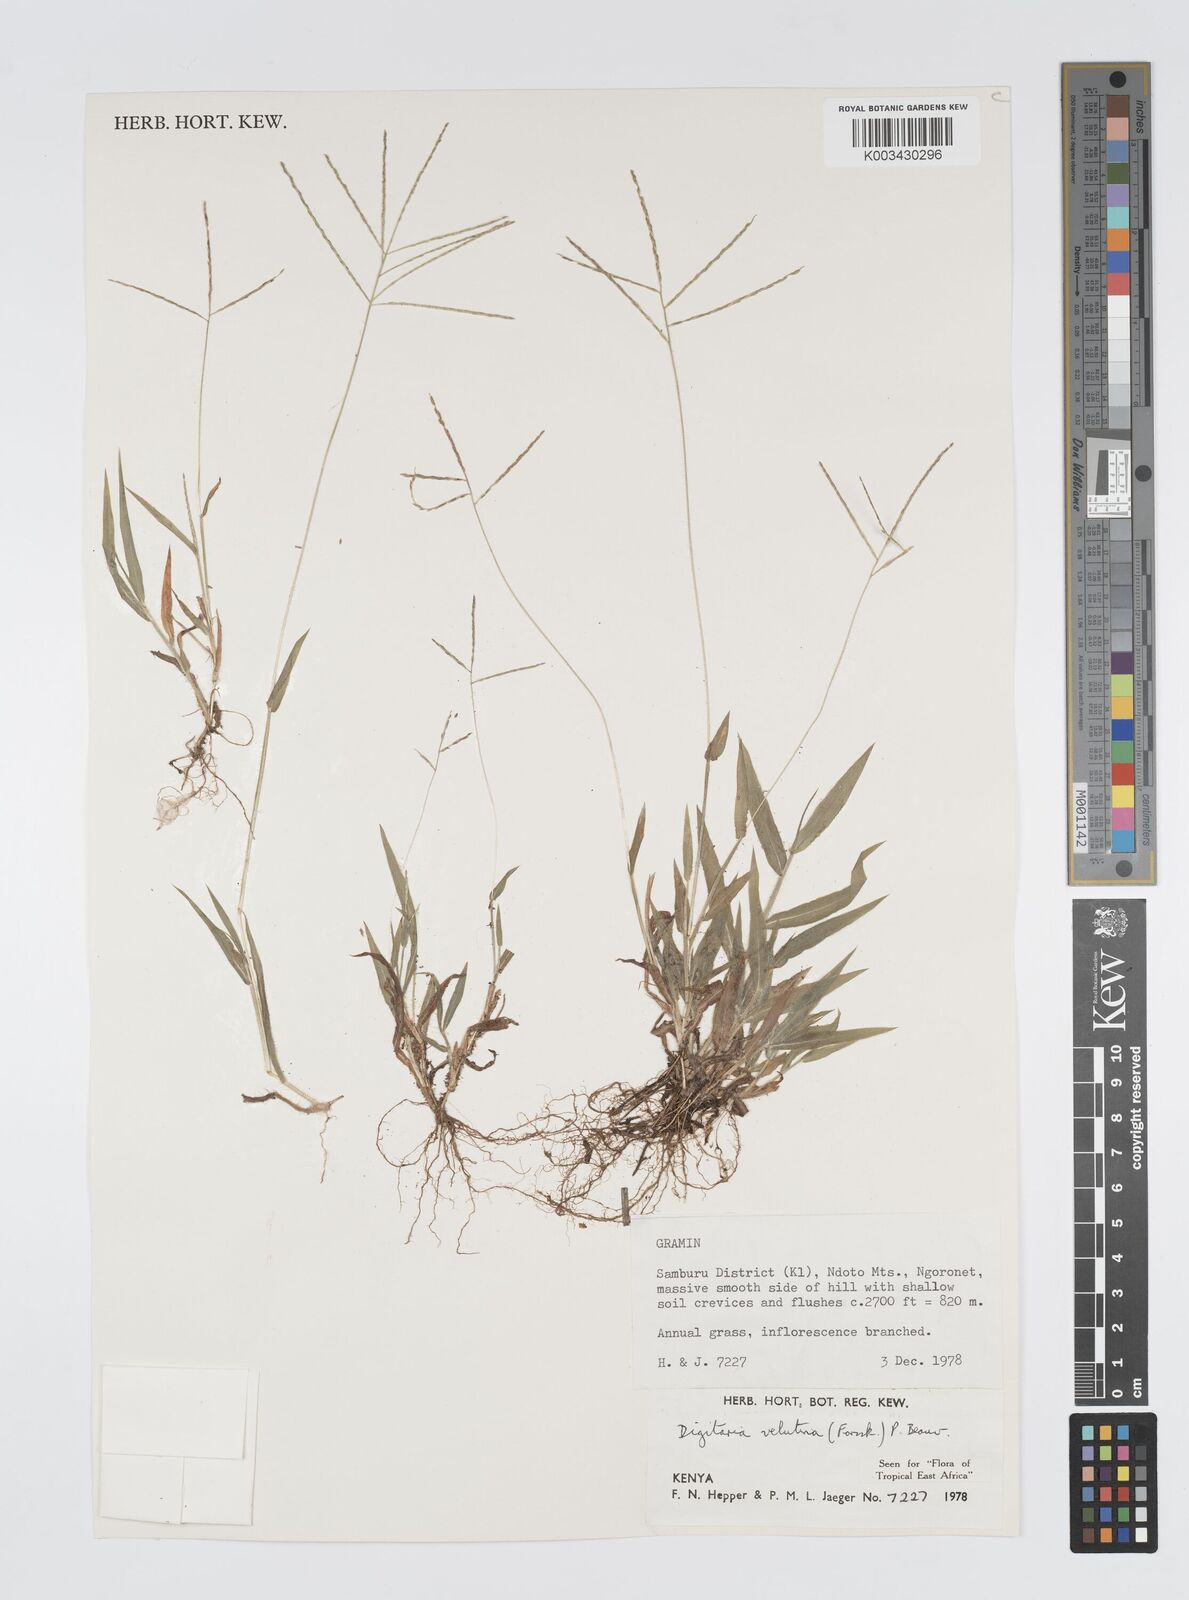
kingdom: Plantae
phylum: Tracheophyta
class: Liliopsida
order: Poales
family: Poaceae
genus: Digitaria
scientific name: Digitaria velutina
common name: Long-plume finger grass
